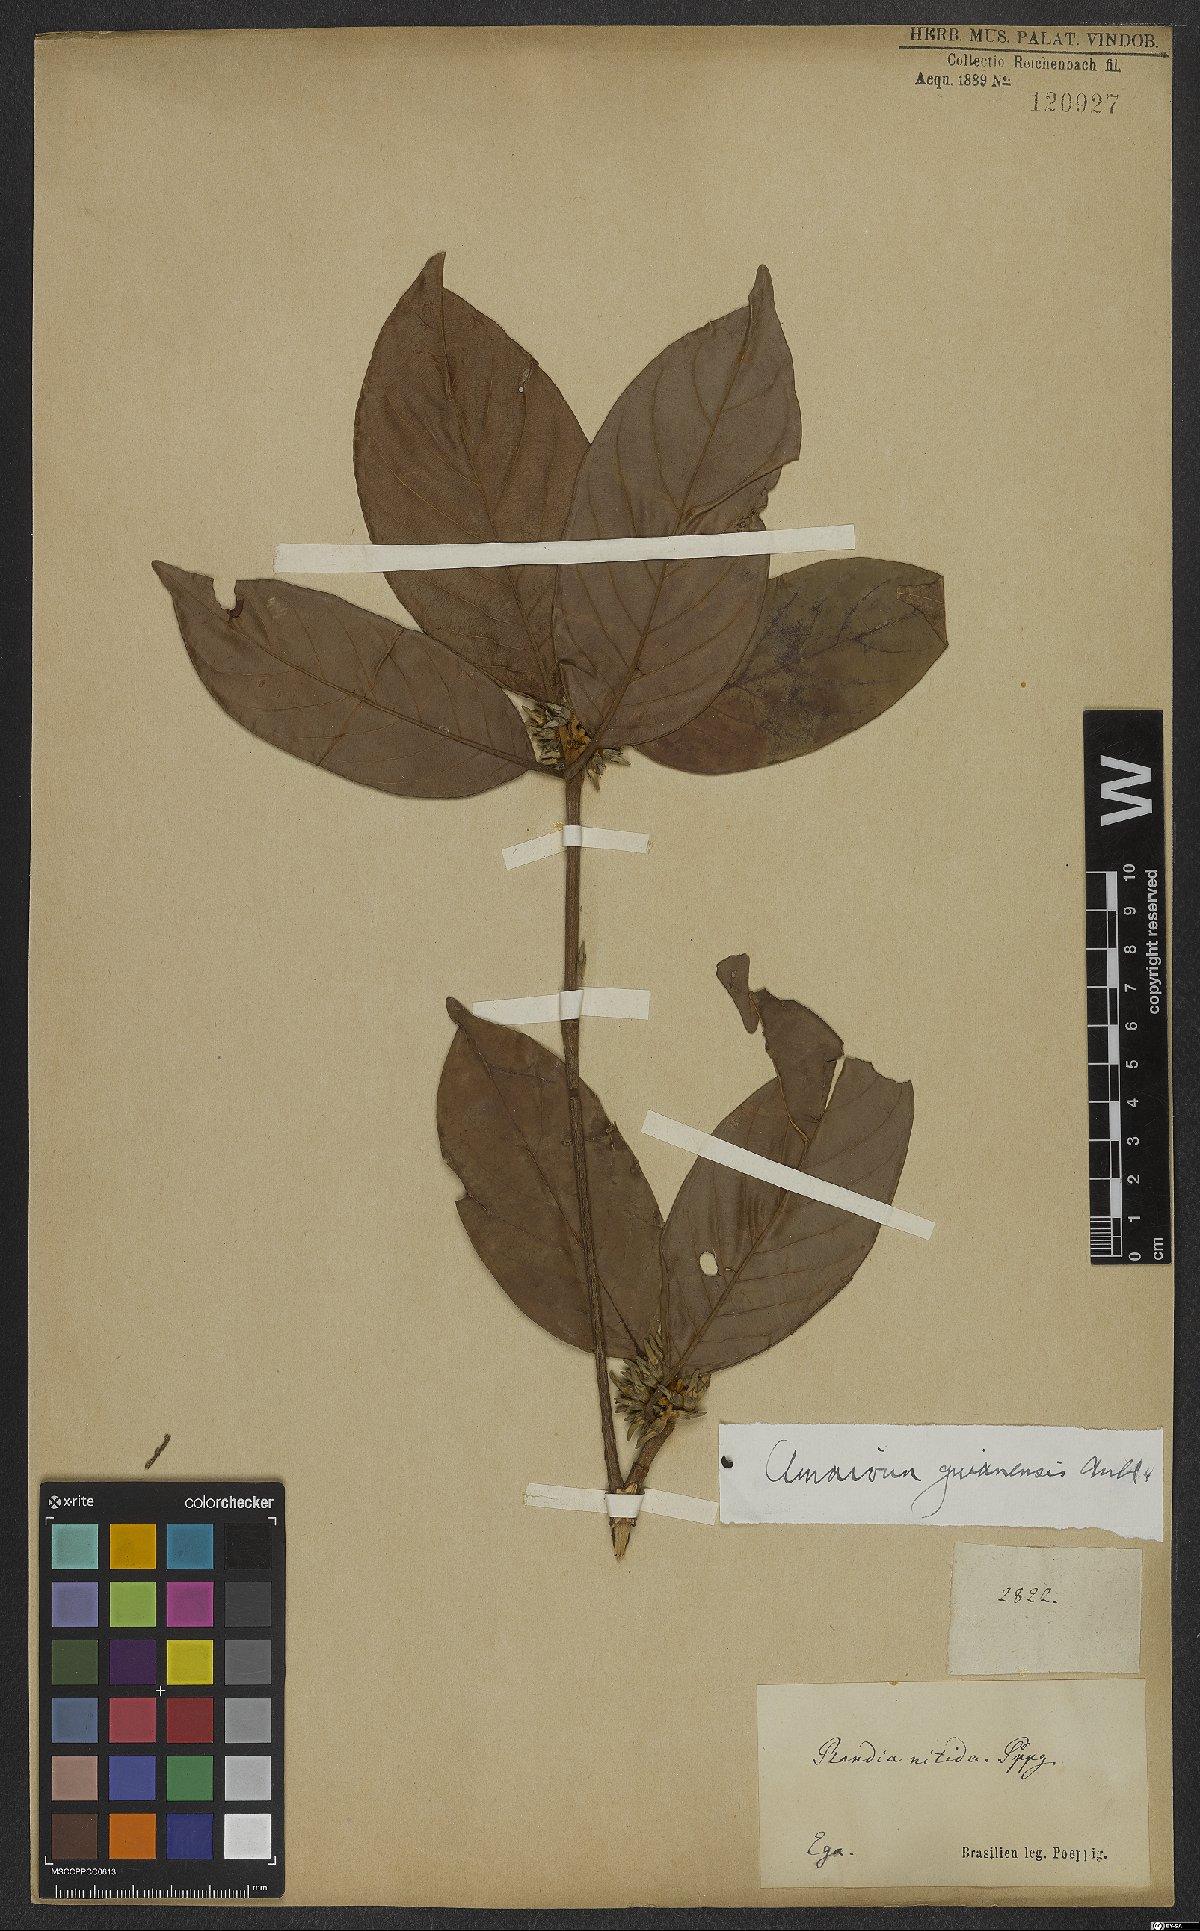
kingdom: Plantae
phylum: Tracheophyta
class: Magnoliopsida
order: Gentianales
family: Rubiaceae
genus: Amaioua
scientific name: Amaioua guianensis
